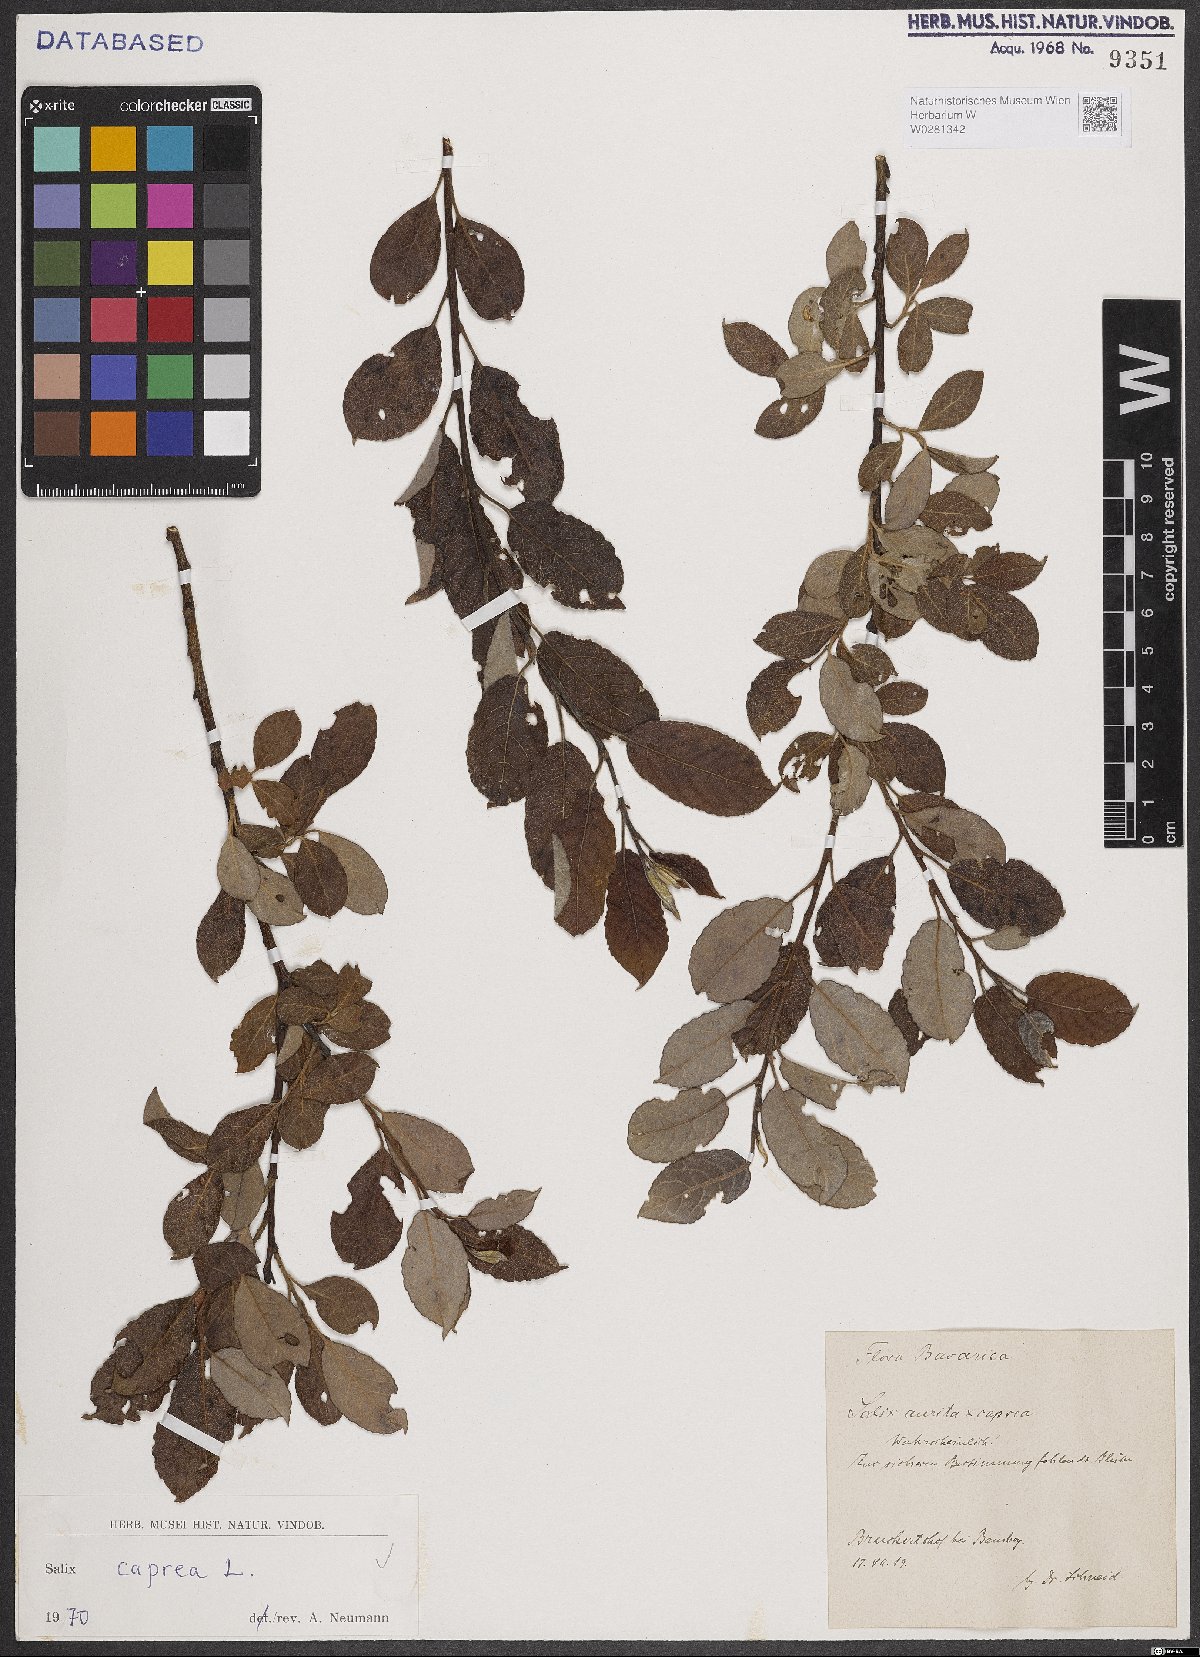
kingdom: Plantae
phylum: Tracheophyta
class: Magnoliopsida
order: Malpighiales
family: Salicaceae
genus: Salix
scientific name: Salix caprea
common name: Goat willow
